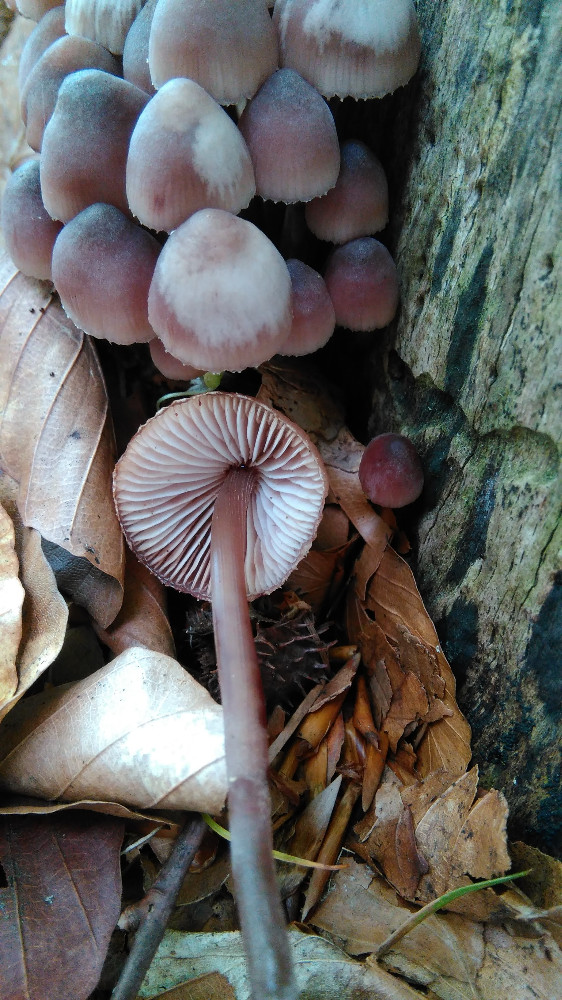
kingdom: Fungi
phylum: Basidiomycota
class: Agaricomycetes
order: Agaricales
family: Mycenaceae
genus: Mycena
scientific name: Mycena haematopus
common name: blødende huesvamp
